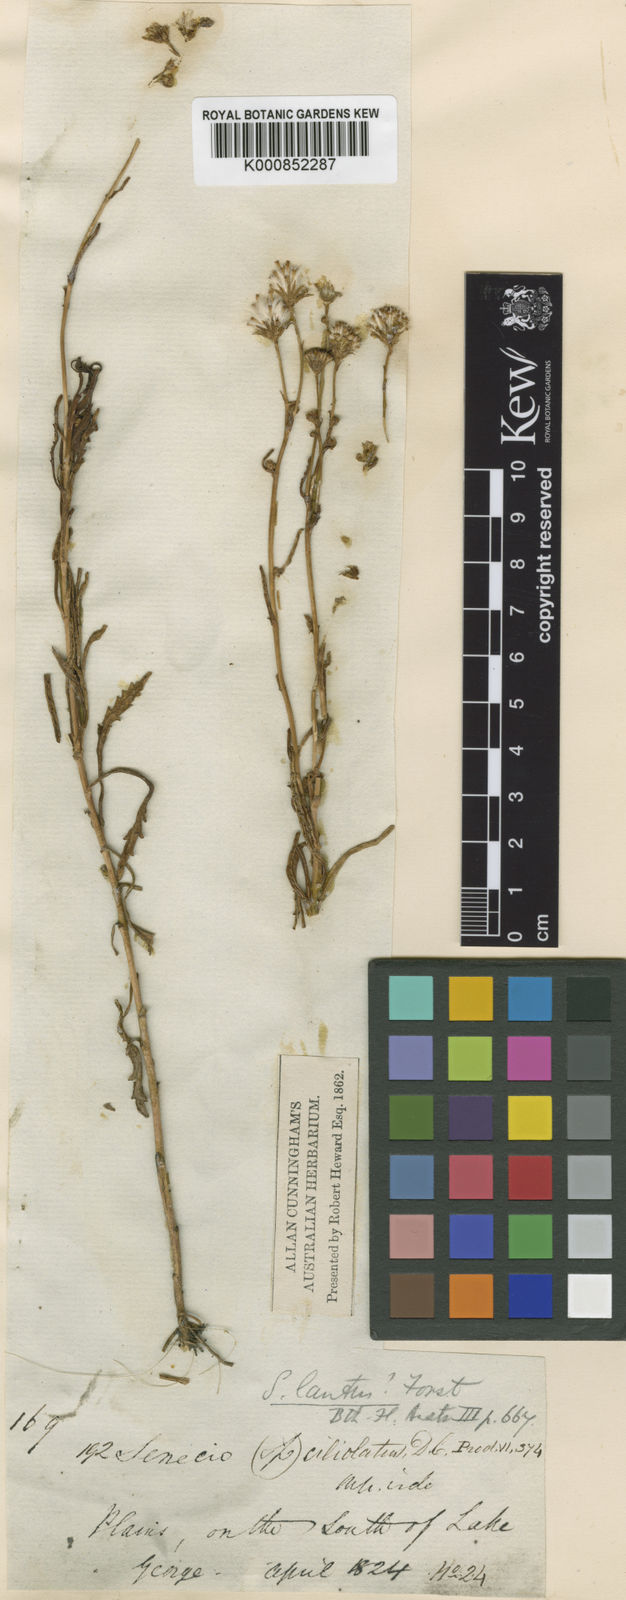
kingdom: Plantae
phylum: Tracheophyta
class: Magnoliopsida
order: Asterales
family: Asteraceae
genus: Senecio
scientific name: Senecio
